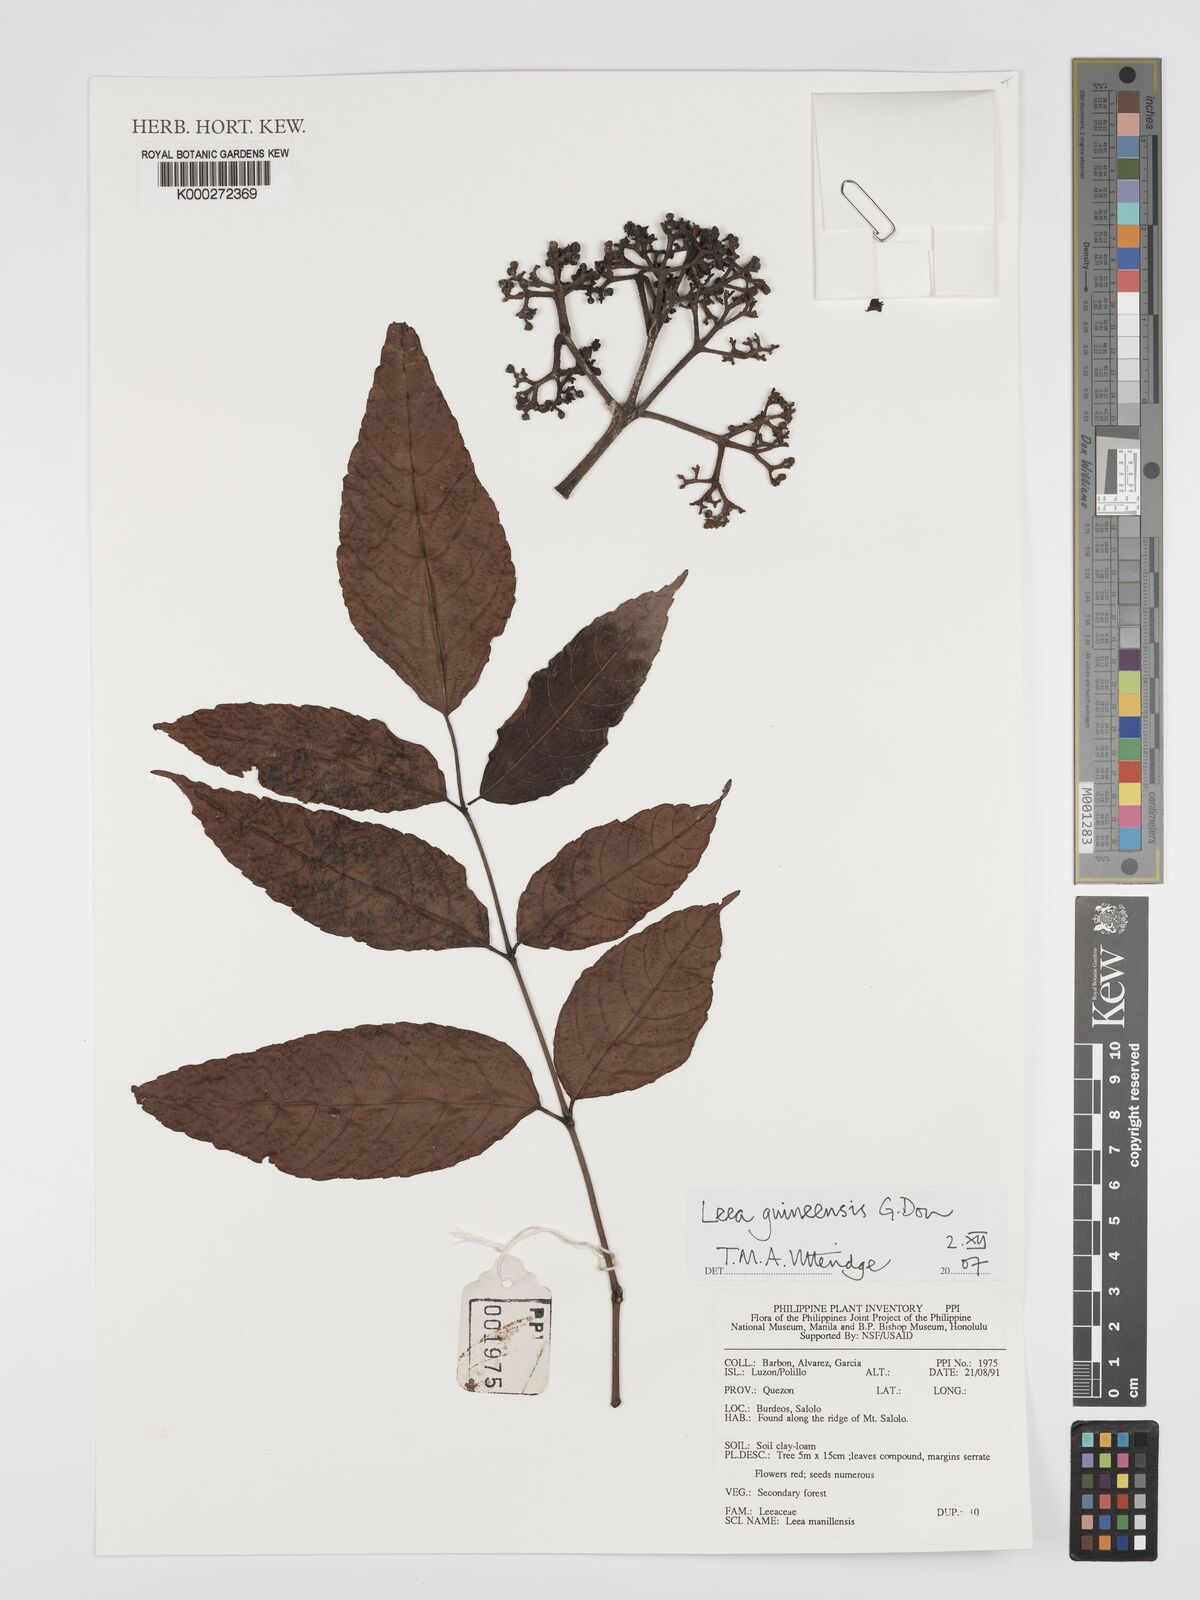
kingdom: Plantae
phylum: Tracheophyta
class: Magnoliopsida
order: Vitales
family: Vitaceae
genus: Leea
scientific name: Leea guineensis
